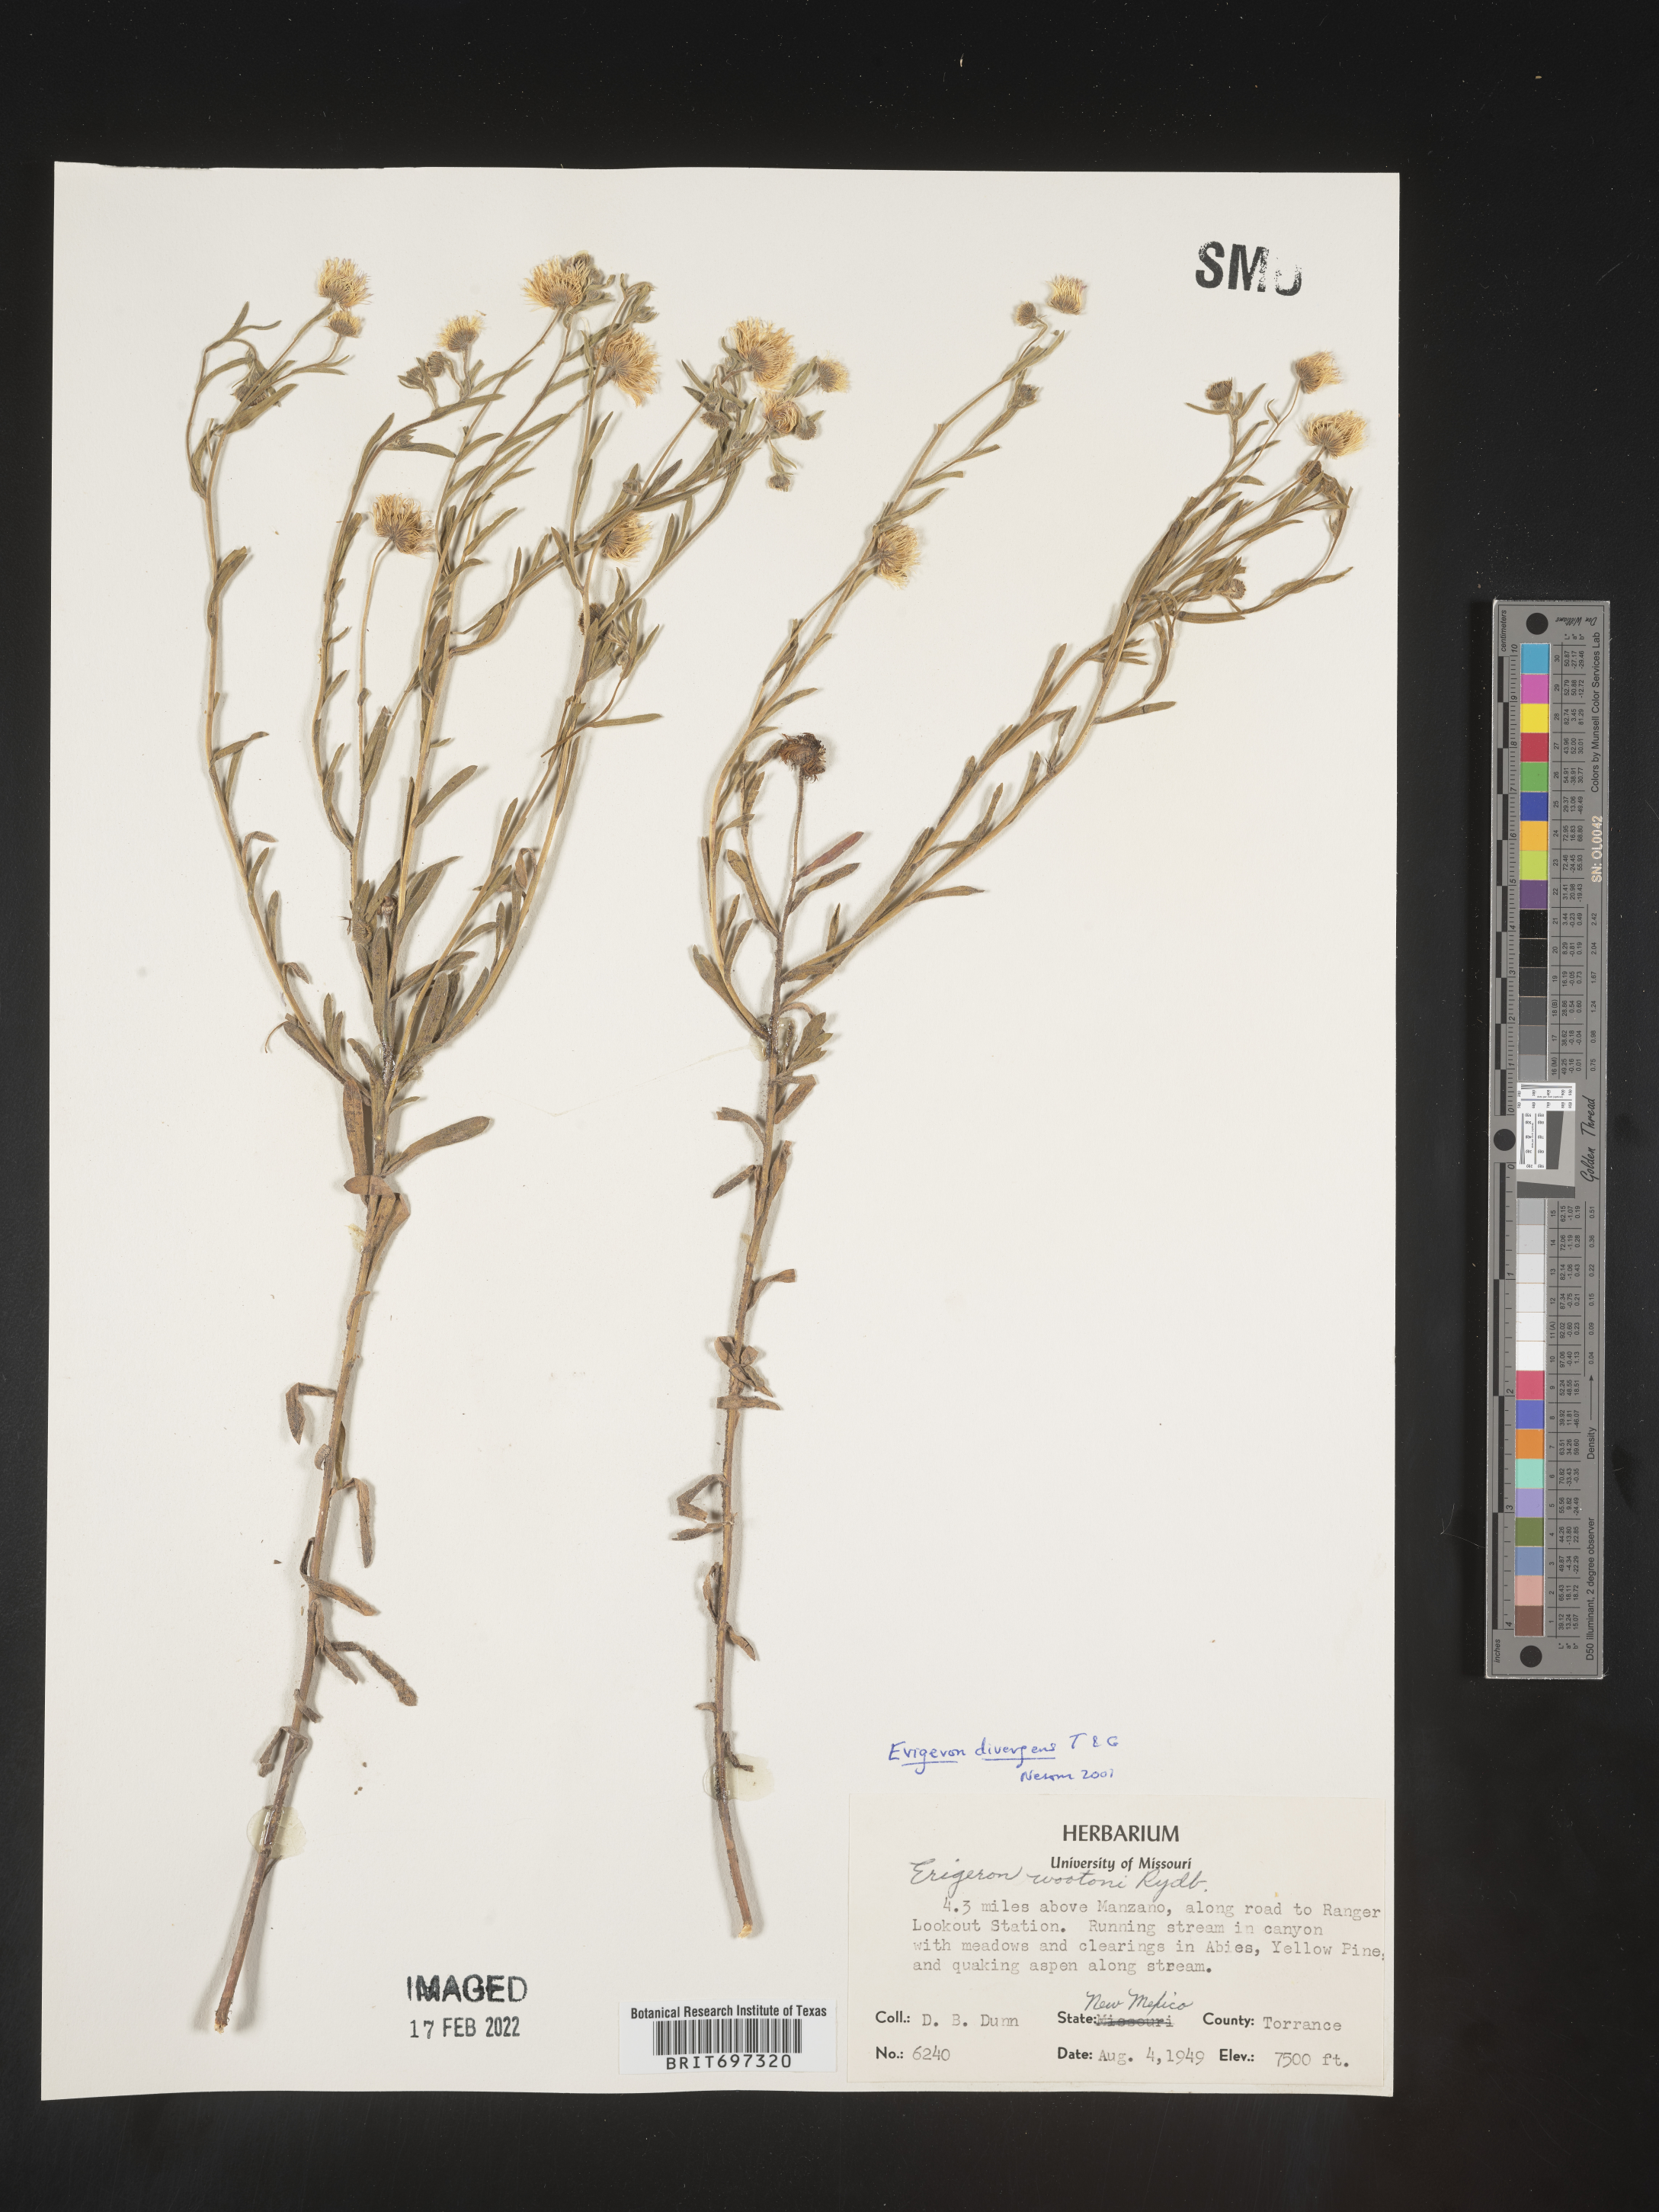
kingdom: Plantae
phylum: Tracheophyta
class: Magnoliopsida
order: Asterales
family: Asteraceae
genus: Erigeron
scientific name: Erigeron divergens
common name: Diffuse fleabane
